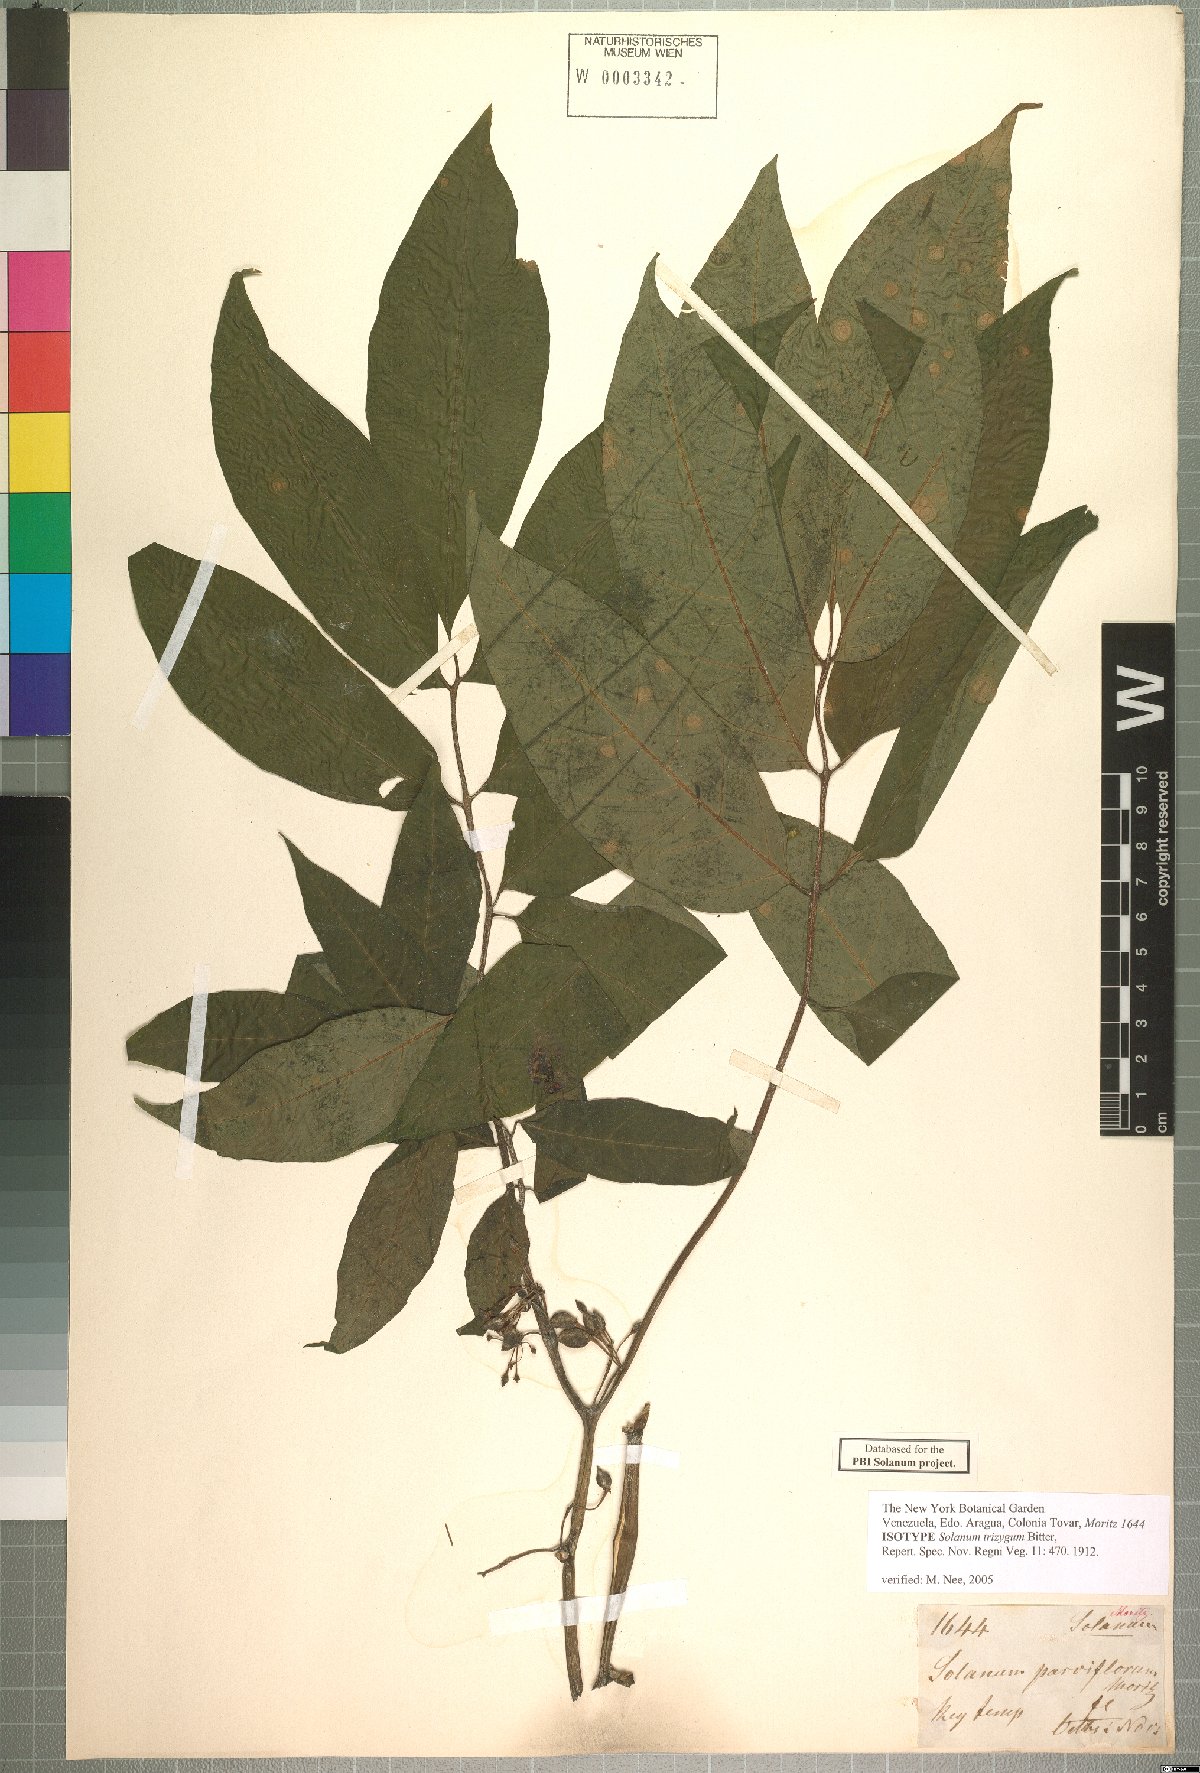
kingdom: Plantae
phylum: Tracheophyta
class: Magnoliopsida
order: Solanales
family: Solanaceae
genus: Solanum
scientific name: Solanum trizygum
